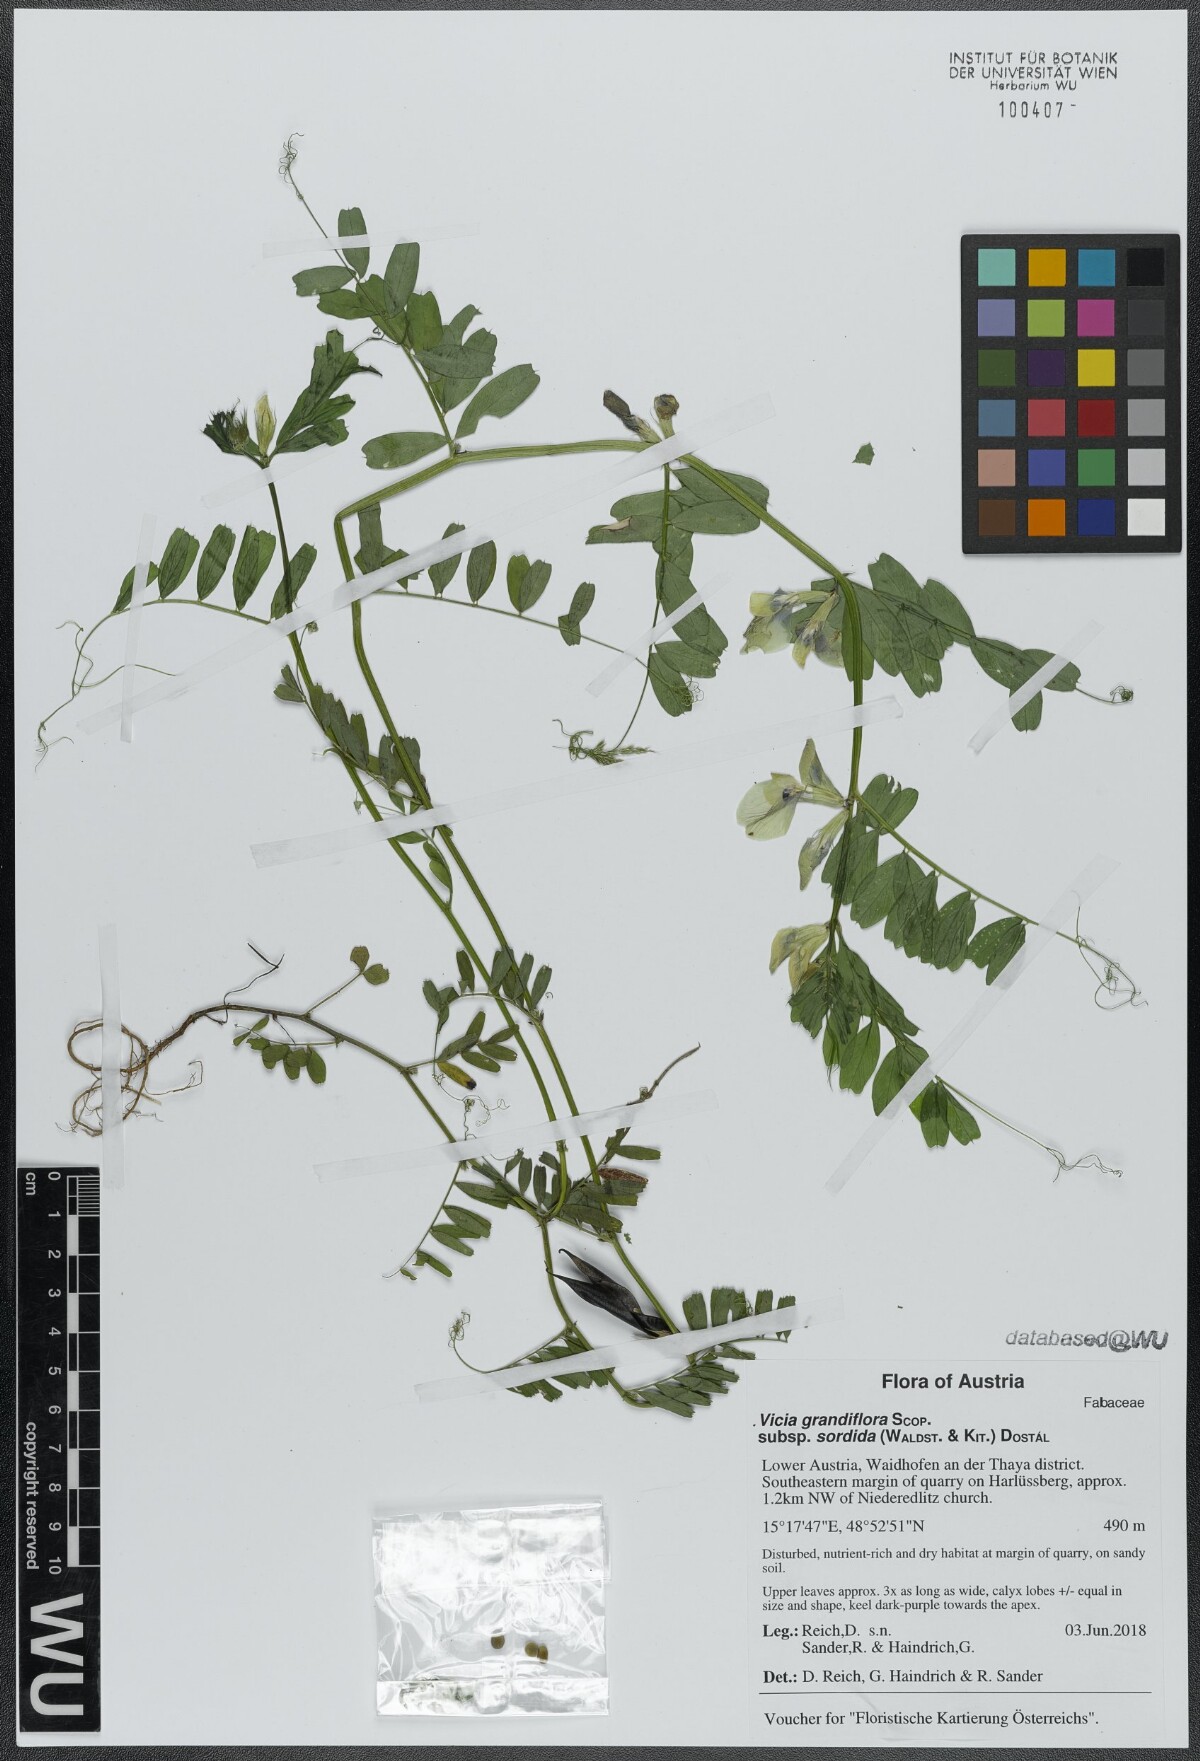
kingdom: Plantae
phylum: Tracheophyta
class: Magnoliopsida
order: Fabales
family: Fabaceae
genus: Vicia
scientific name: Vicia grandiflora
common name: Large yellow vetch
